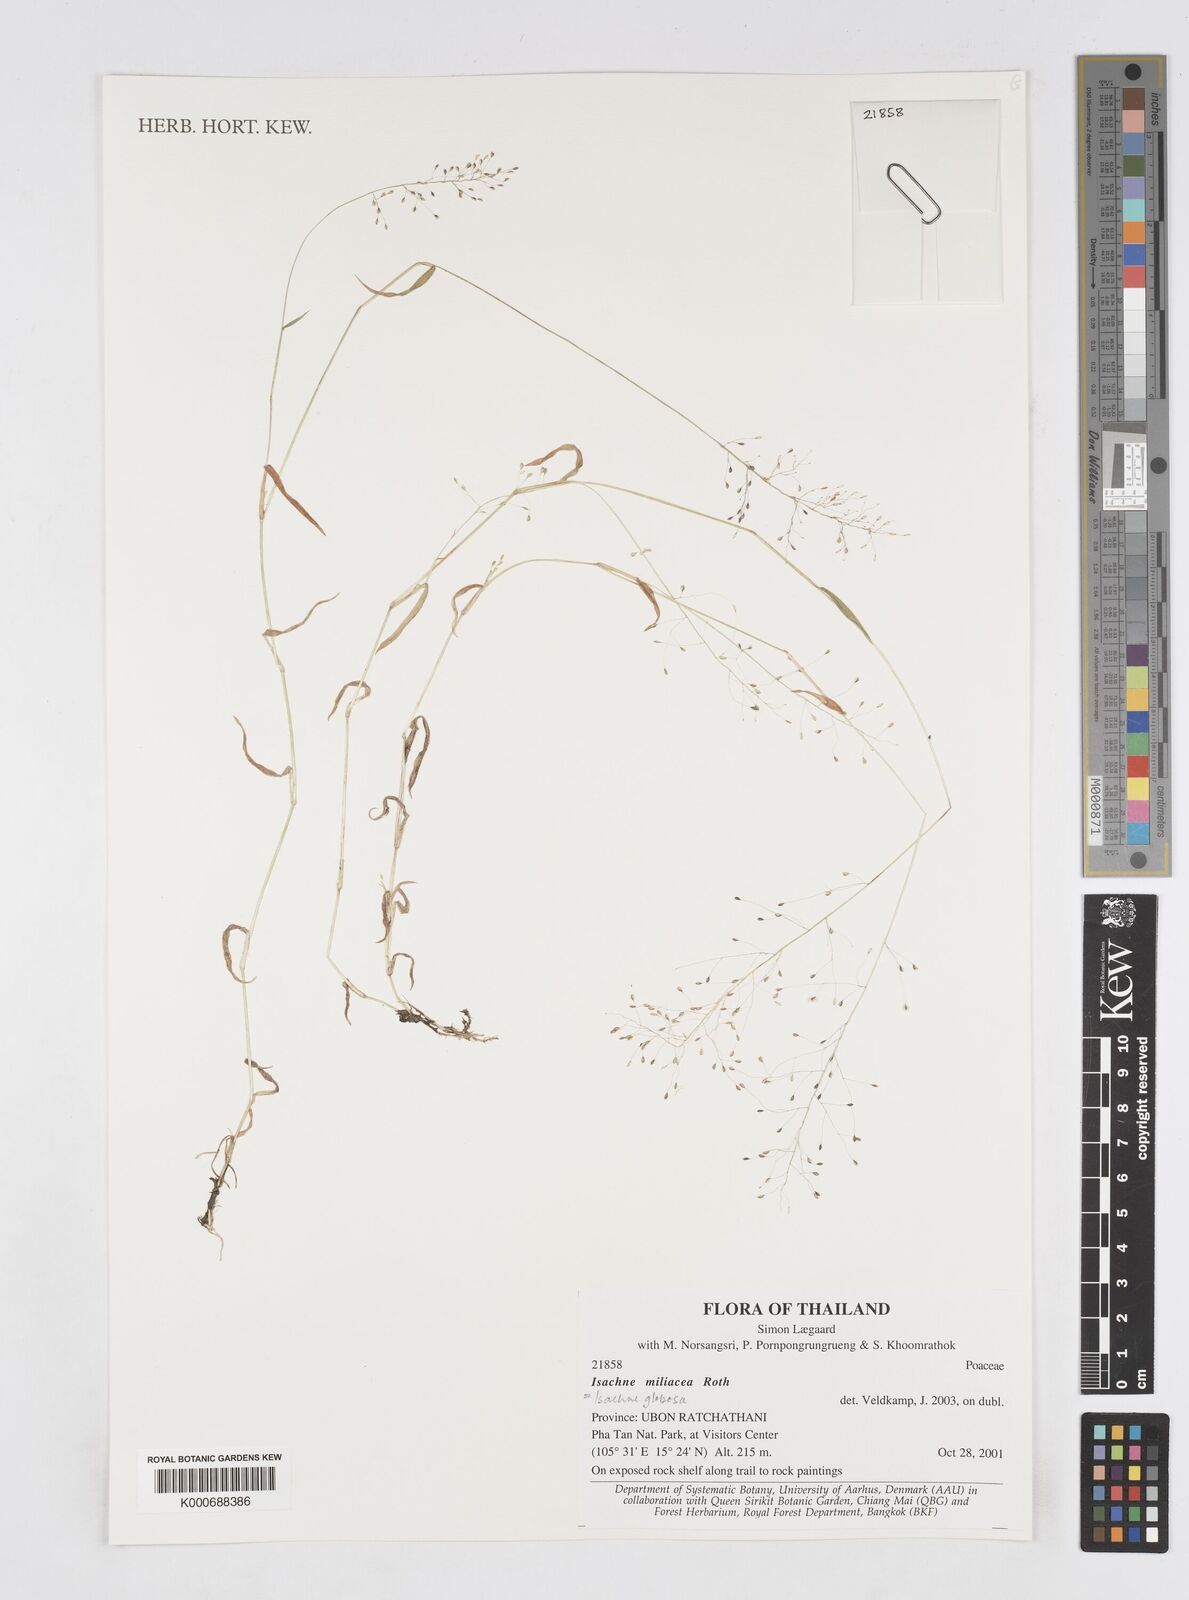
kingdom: Plantae
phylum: Tracheophyta
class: Liliopsida
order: Poales
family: Poaceae
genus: Isachne
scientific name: Isachne globosa
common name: Swamp millet
